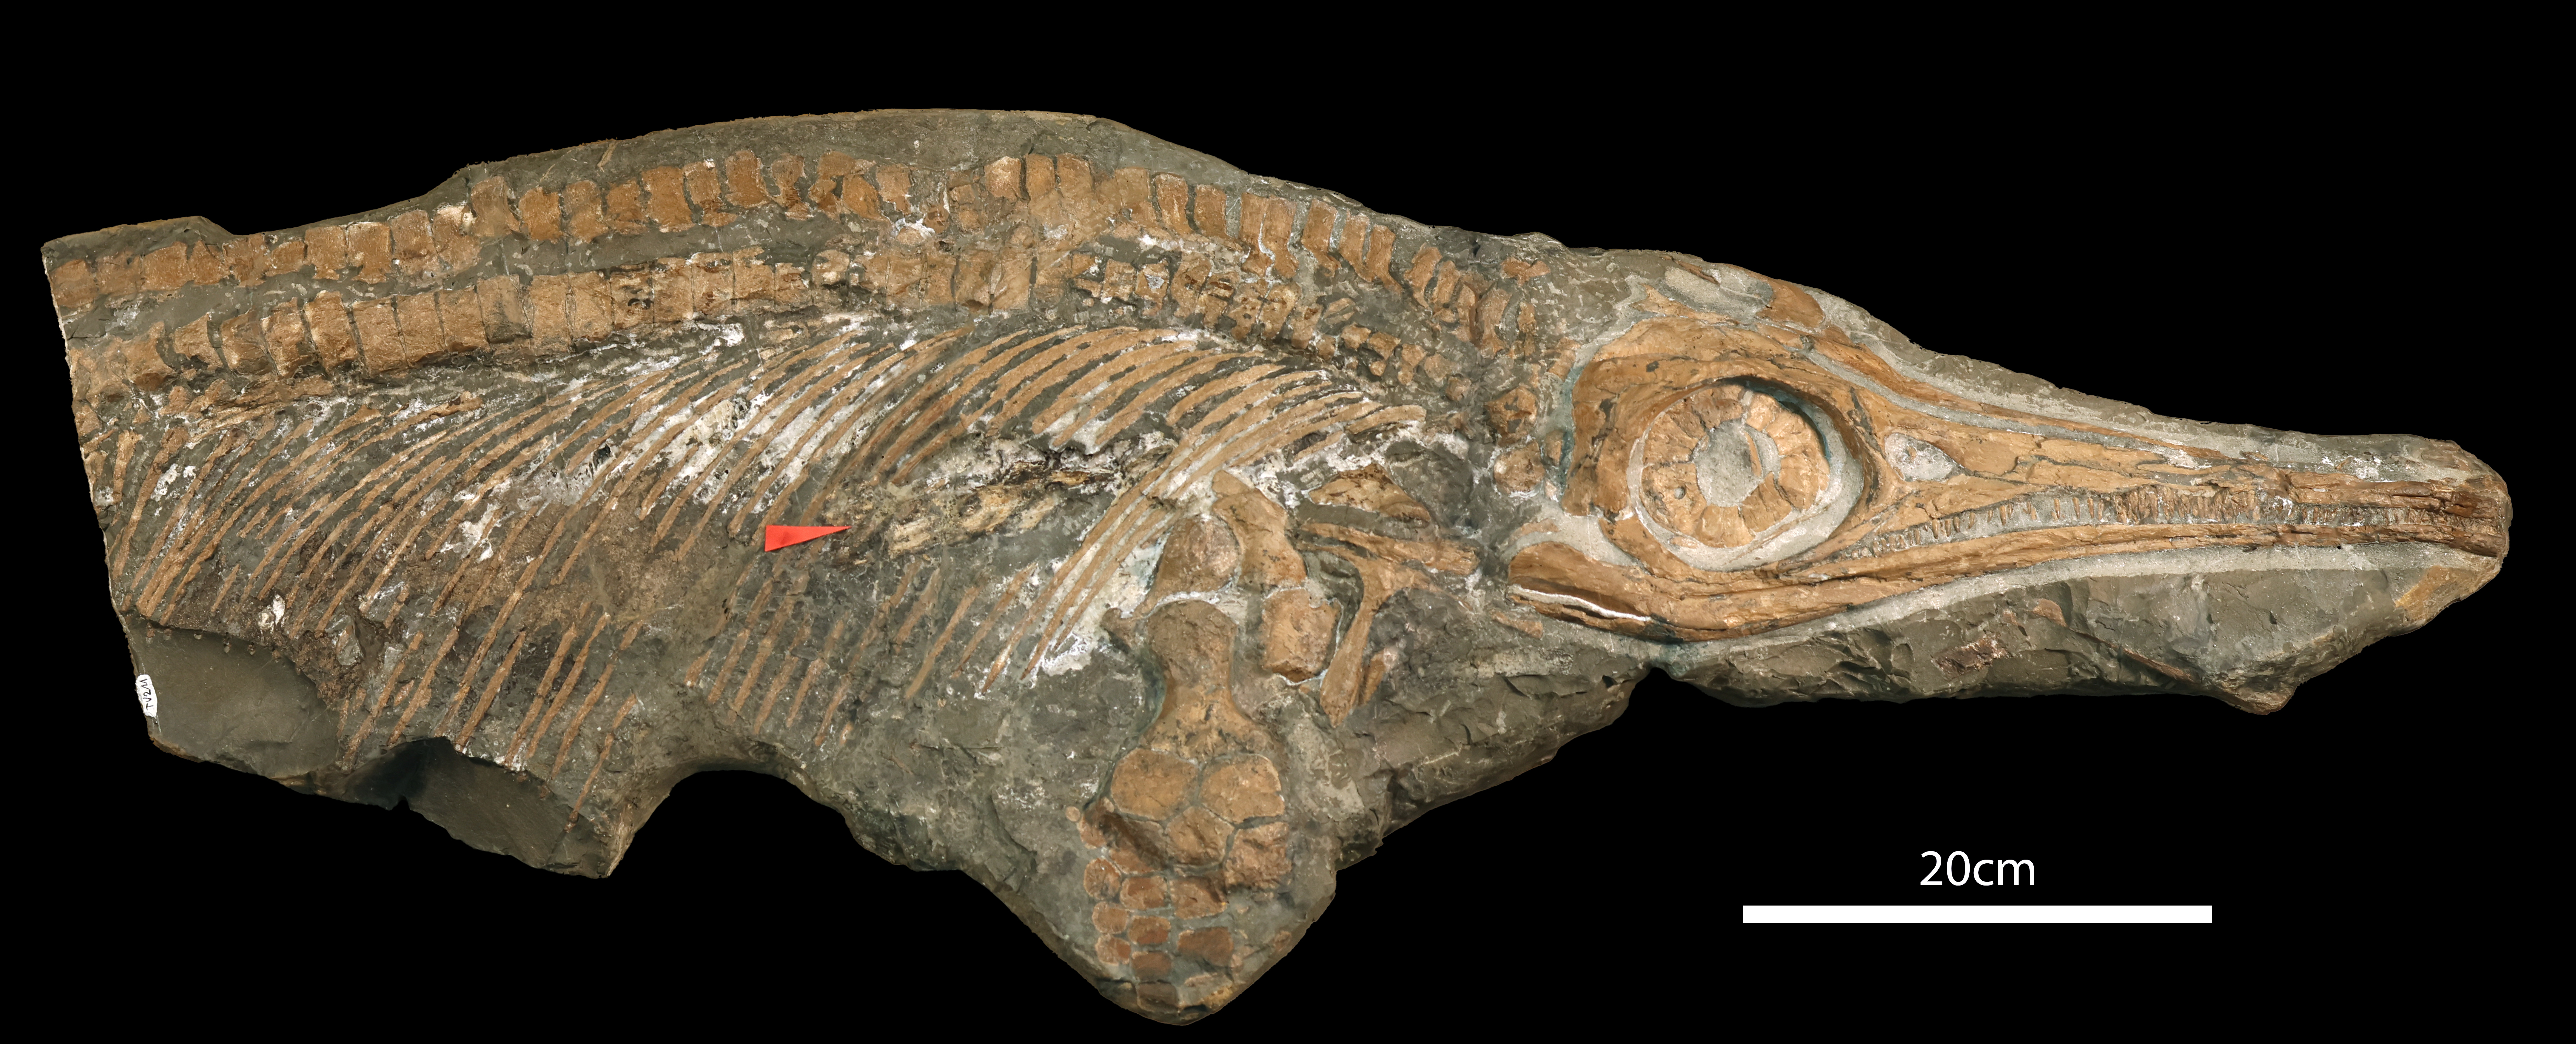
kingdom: Animalia
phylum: Chordata
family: Stenopterygiidae
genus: Stenopterygius
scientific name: Stenopterygius quadriscissus
